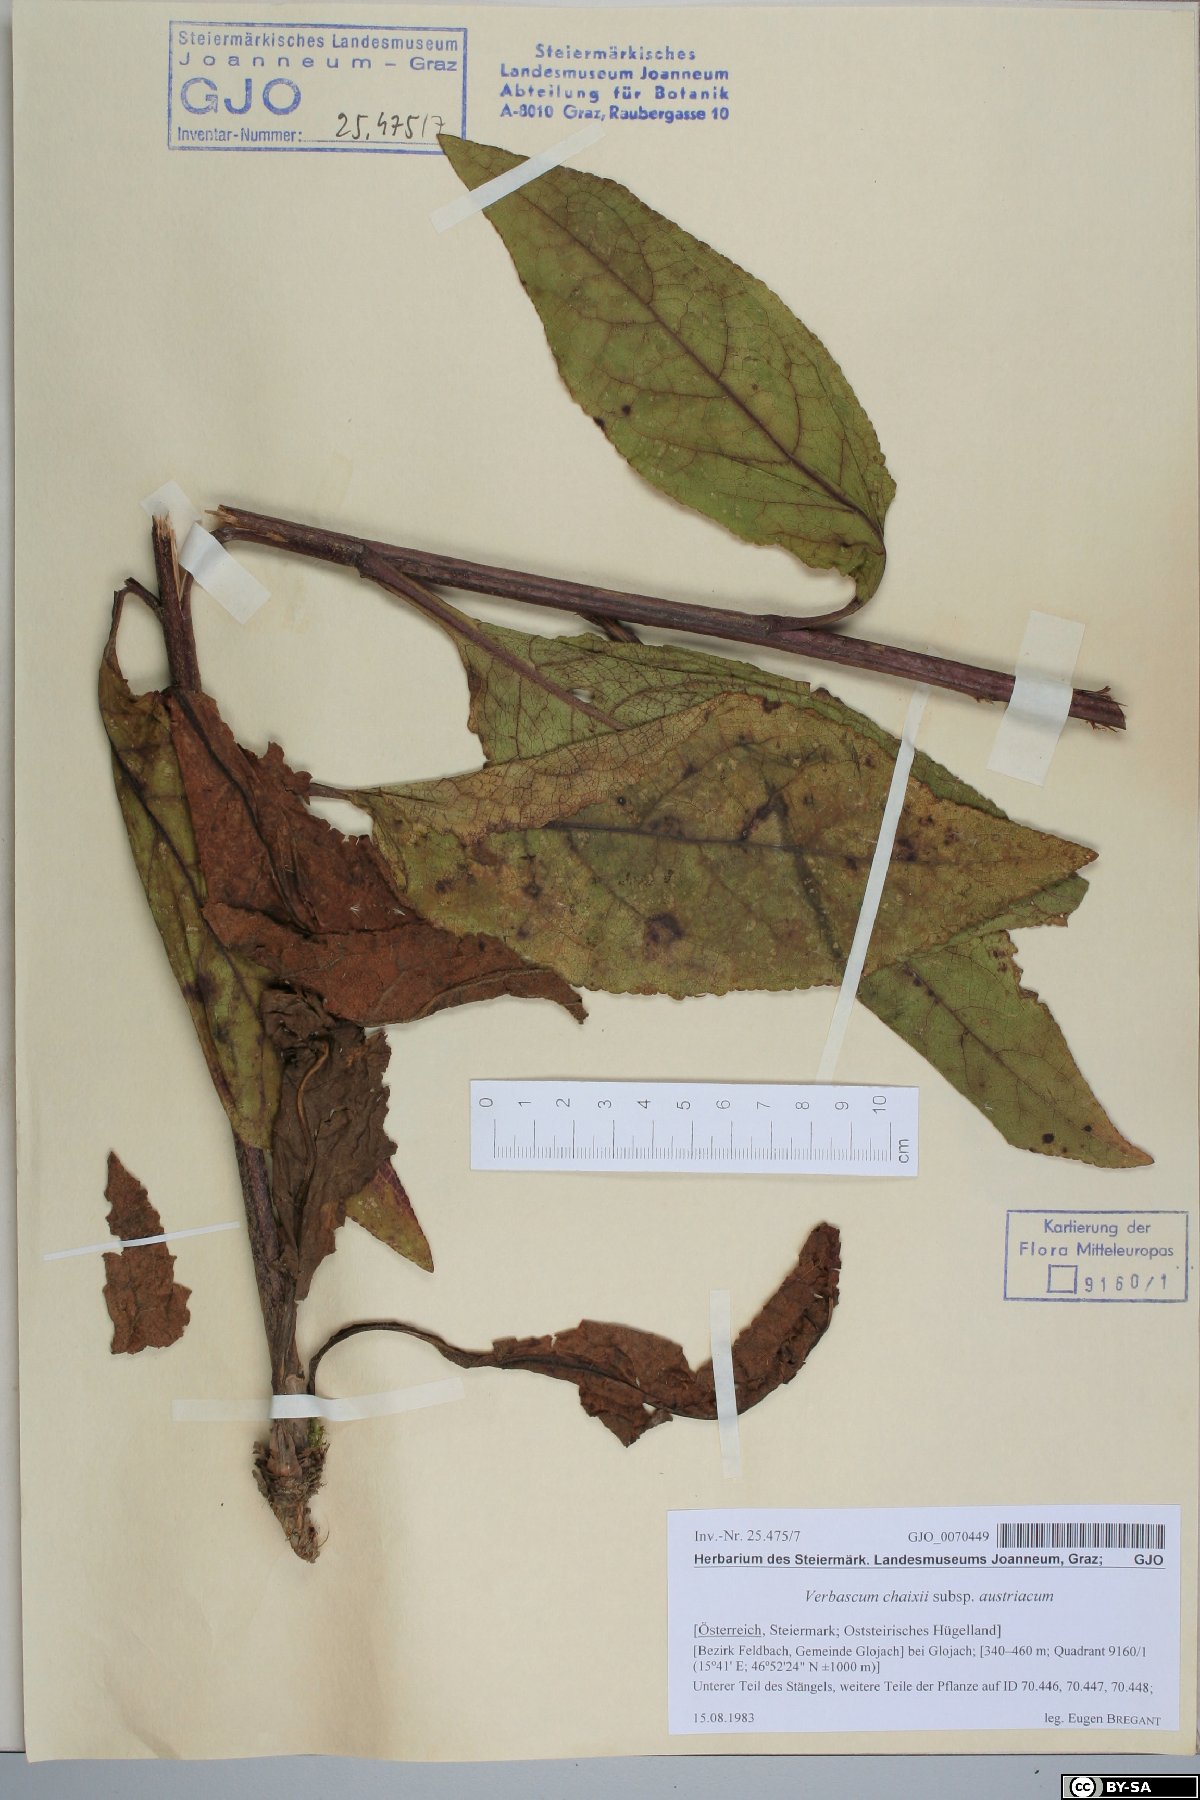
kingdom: Plantae
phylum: Tracheophyta
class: Magnoliopsida
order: Lamiales
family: Scrophulariaceae
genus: Verbascum
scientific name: Verbascum chaixii
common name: Nettle-leaved mullein
